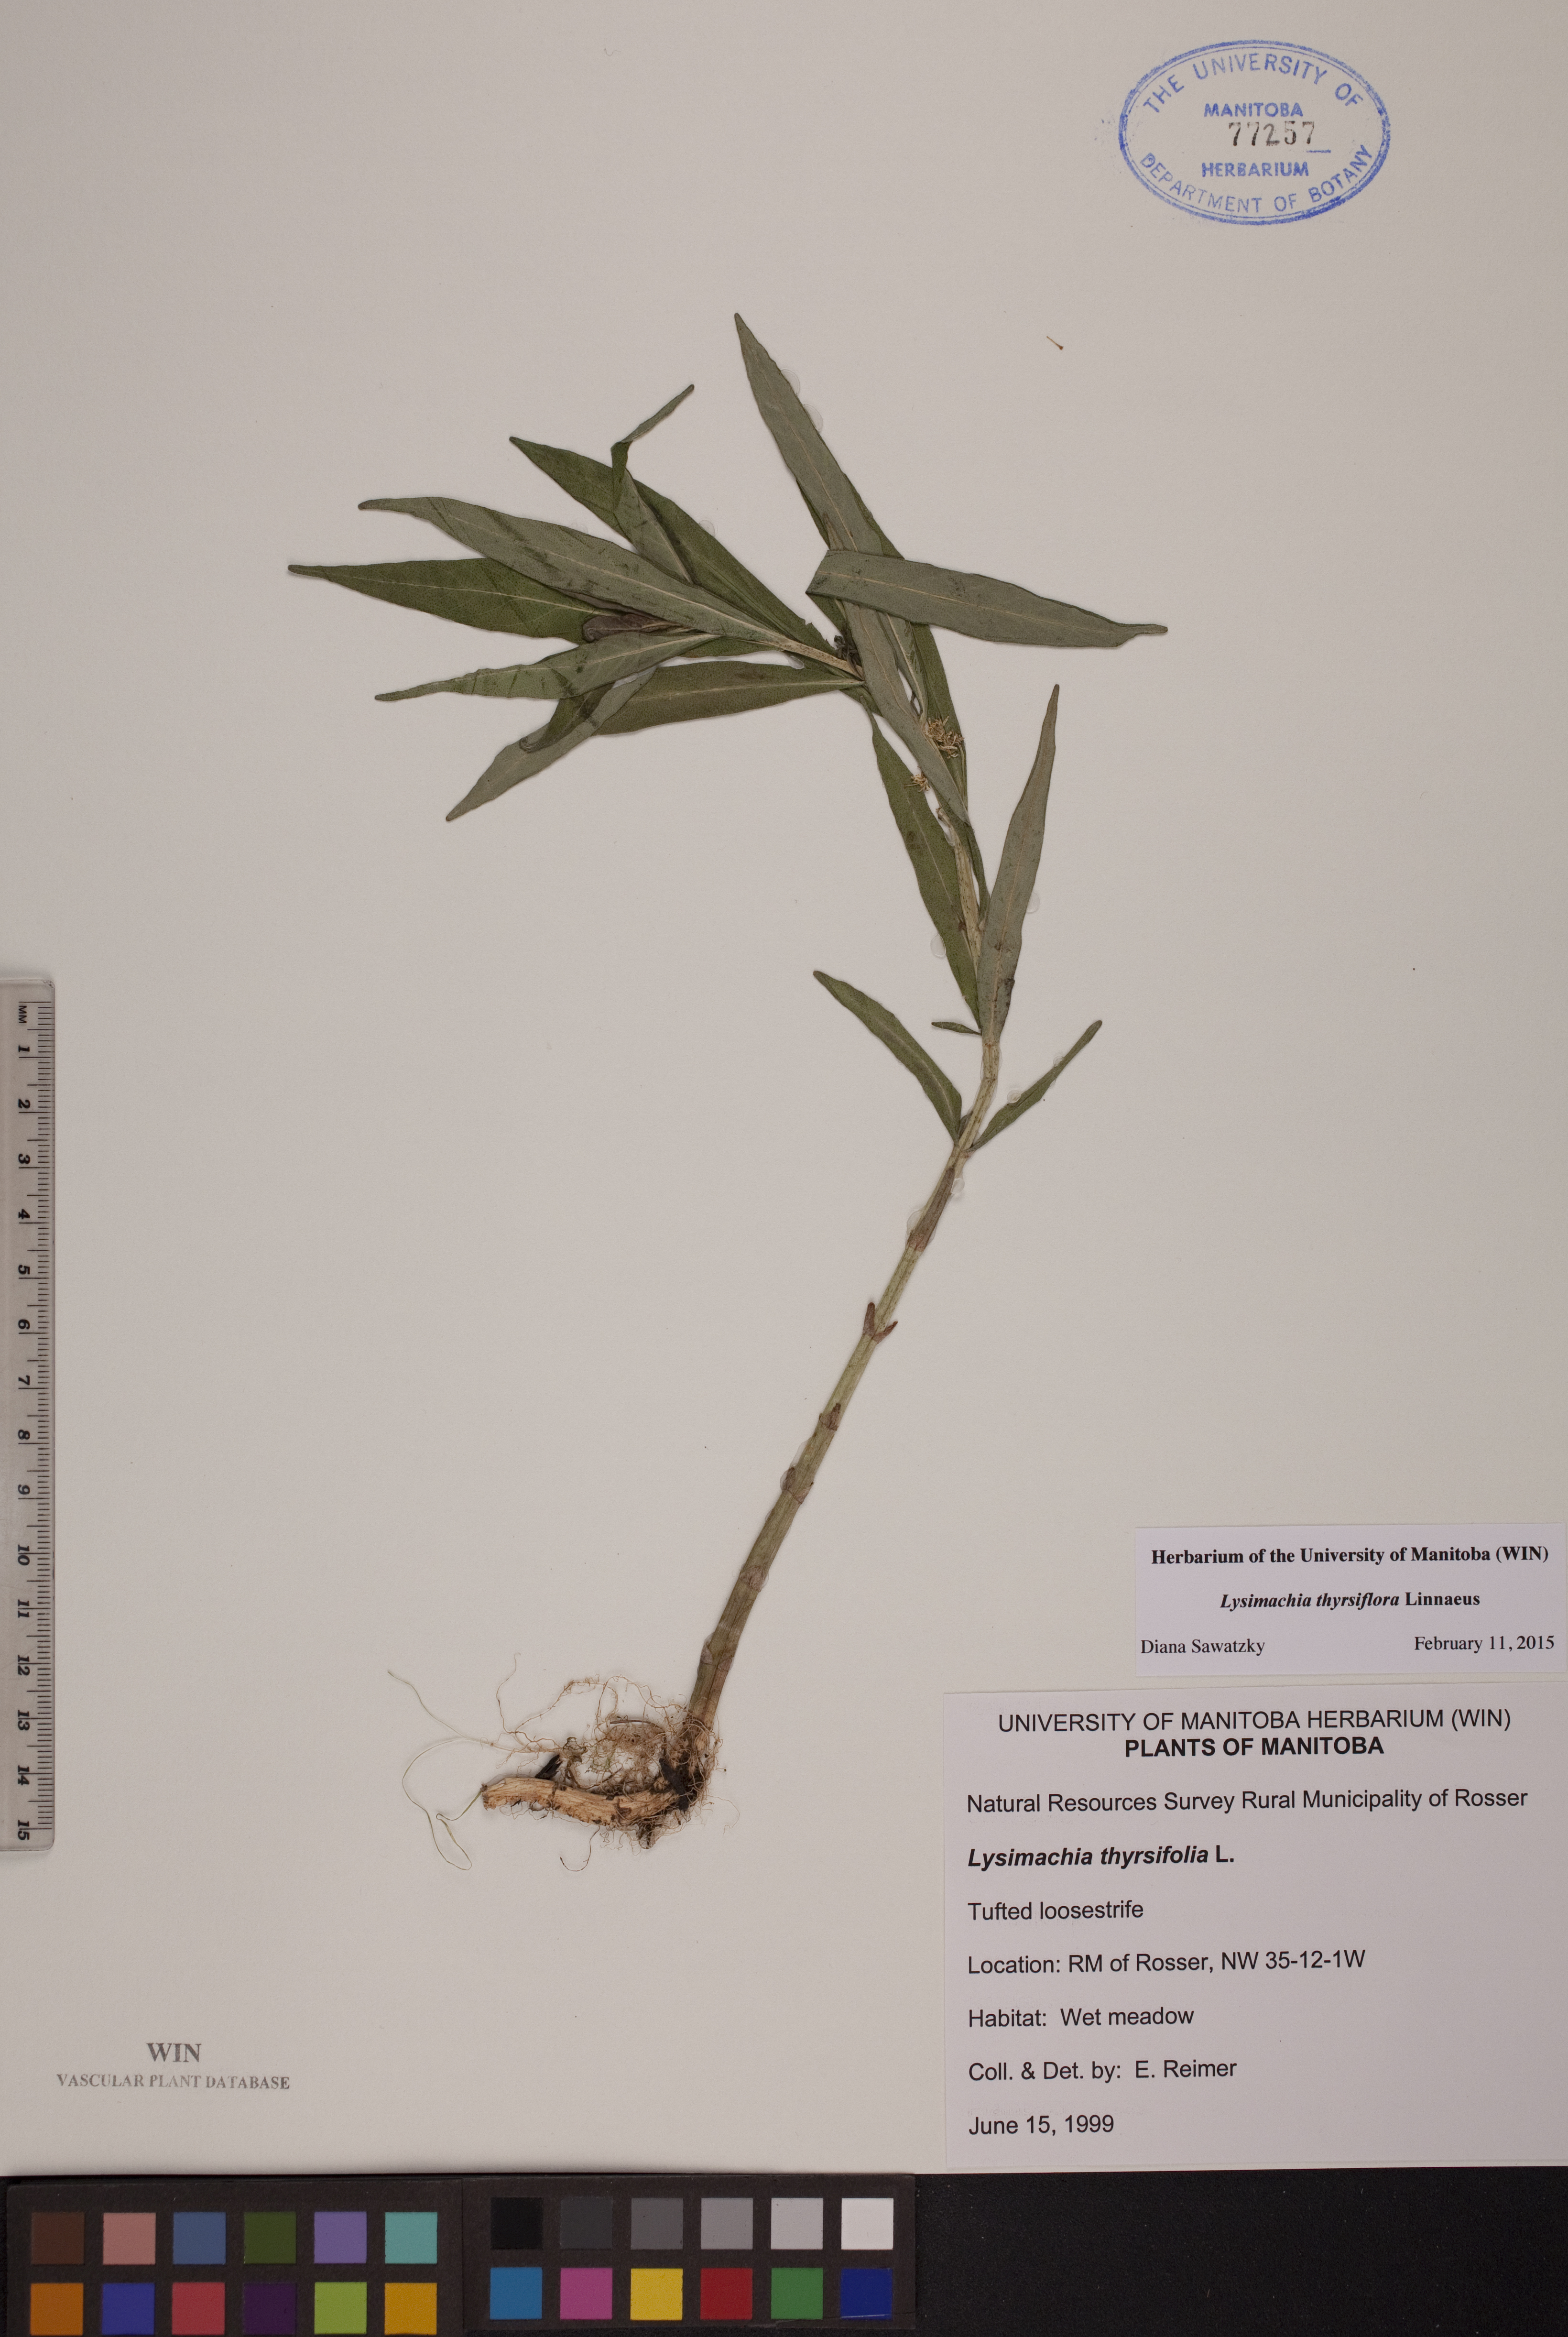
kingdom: Plantae
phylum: Tracheophyta
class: Magnoliopsida
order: Ericales
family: Primulaceae
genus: Lysimachia
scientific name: Lysimachia thyrsiflora
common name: Tufted loosestrife
